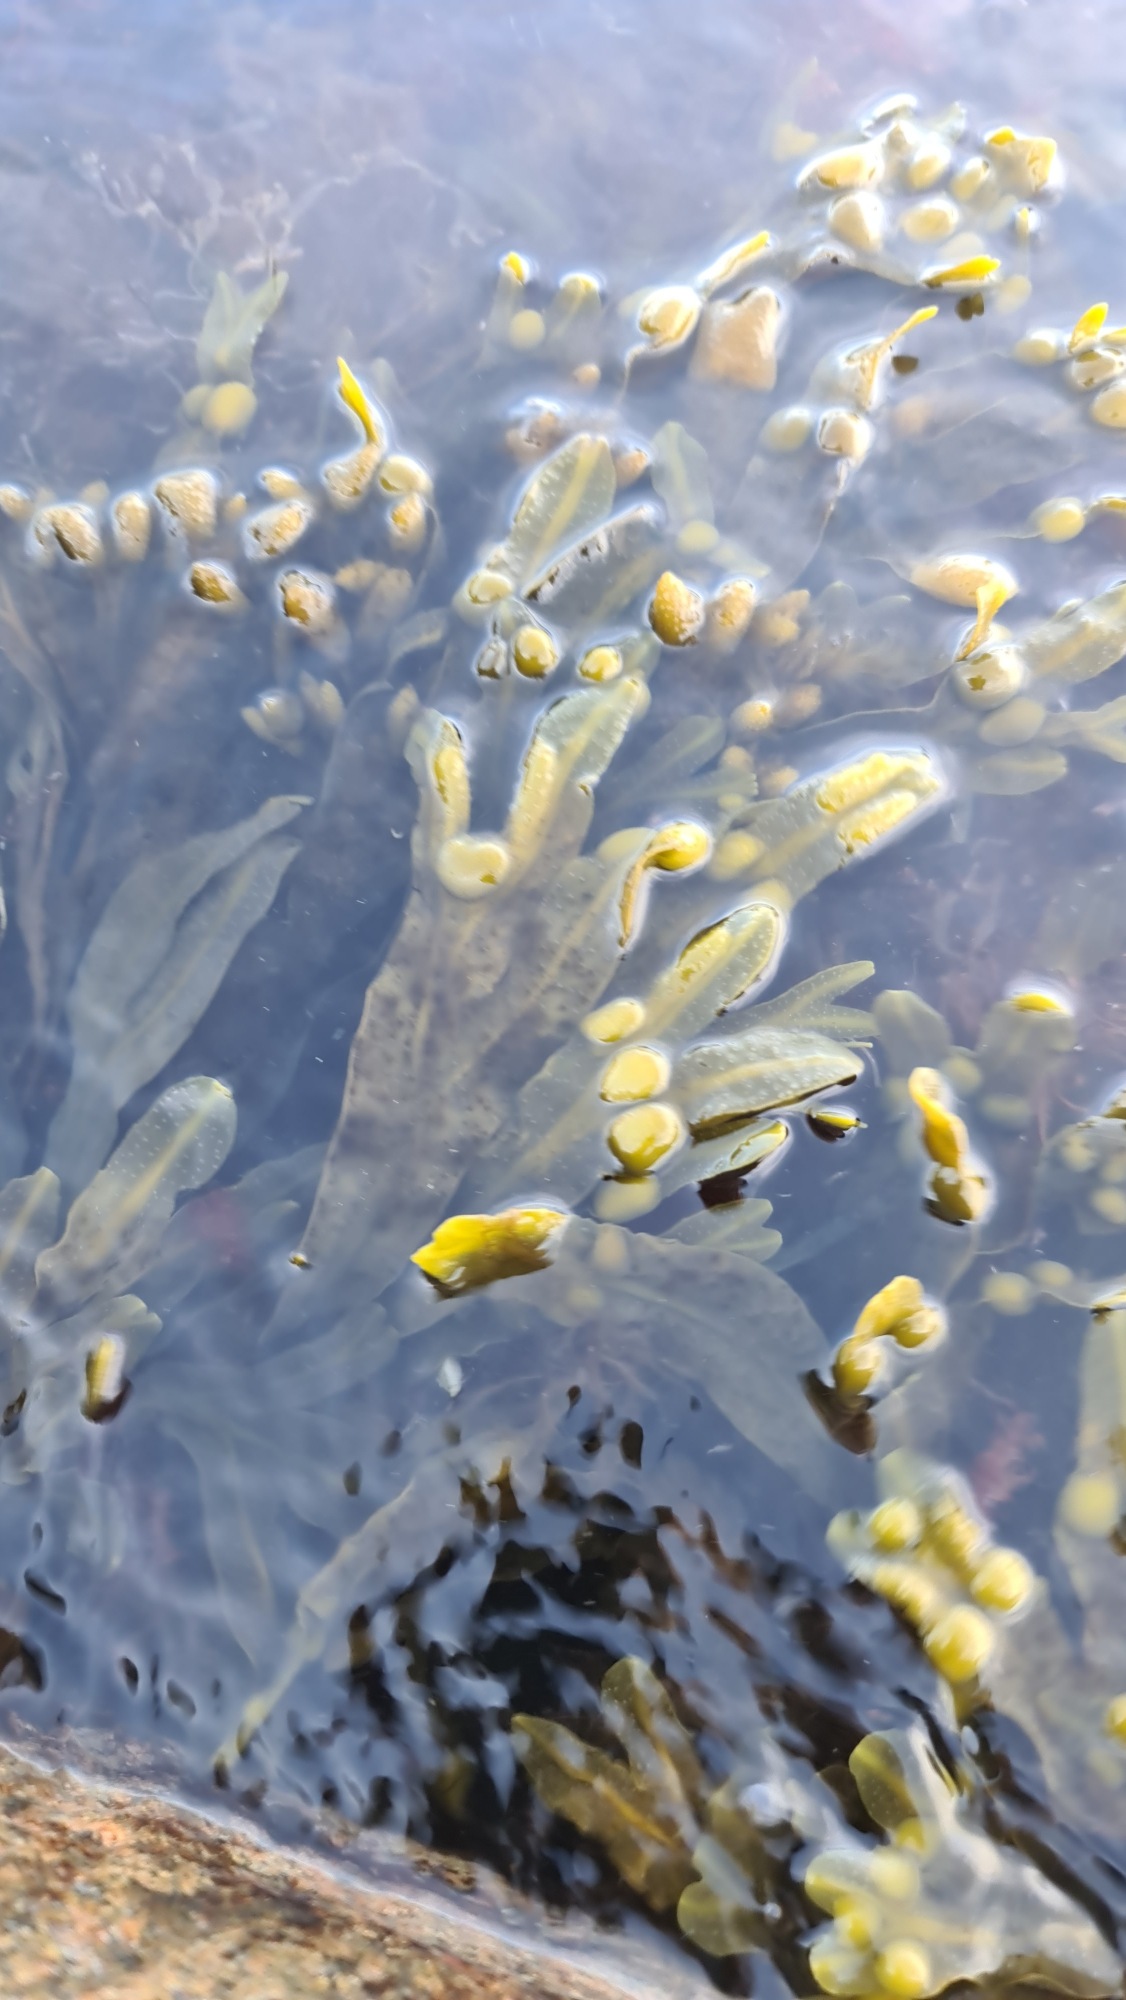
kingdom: Chromista
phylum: Ochrophyta
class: Phaeophyceae
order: Fucales
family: Fucaceae
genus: Fucus
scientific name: Fucus vesiculosus
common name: Blæretang
